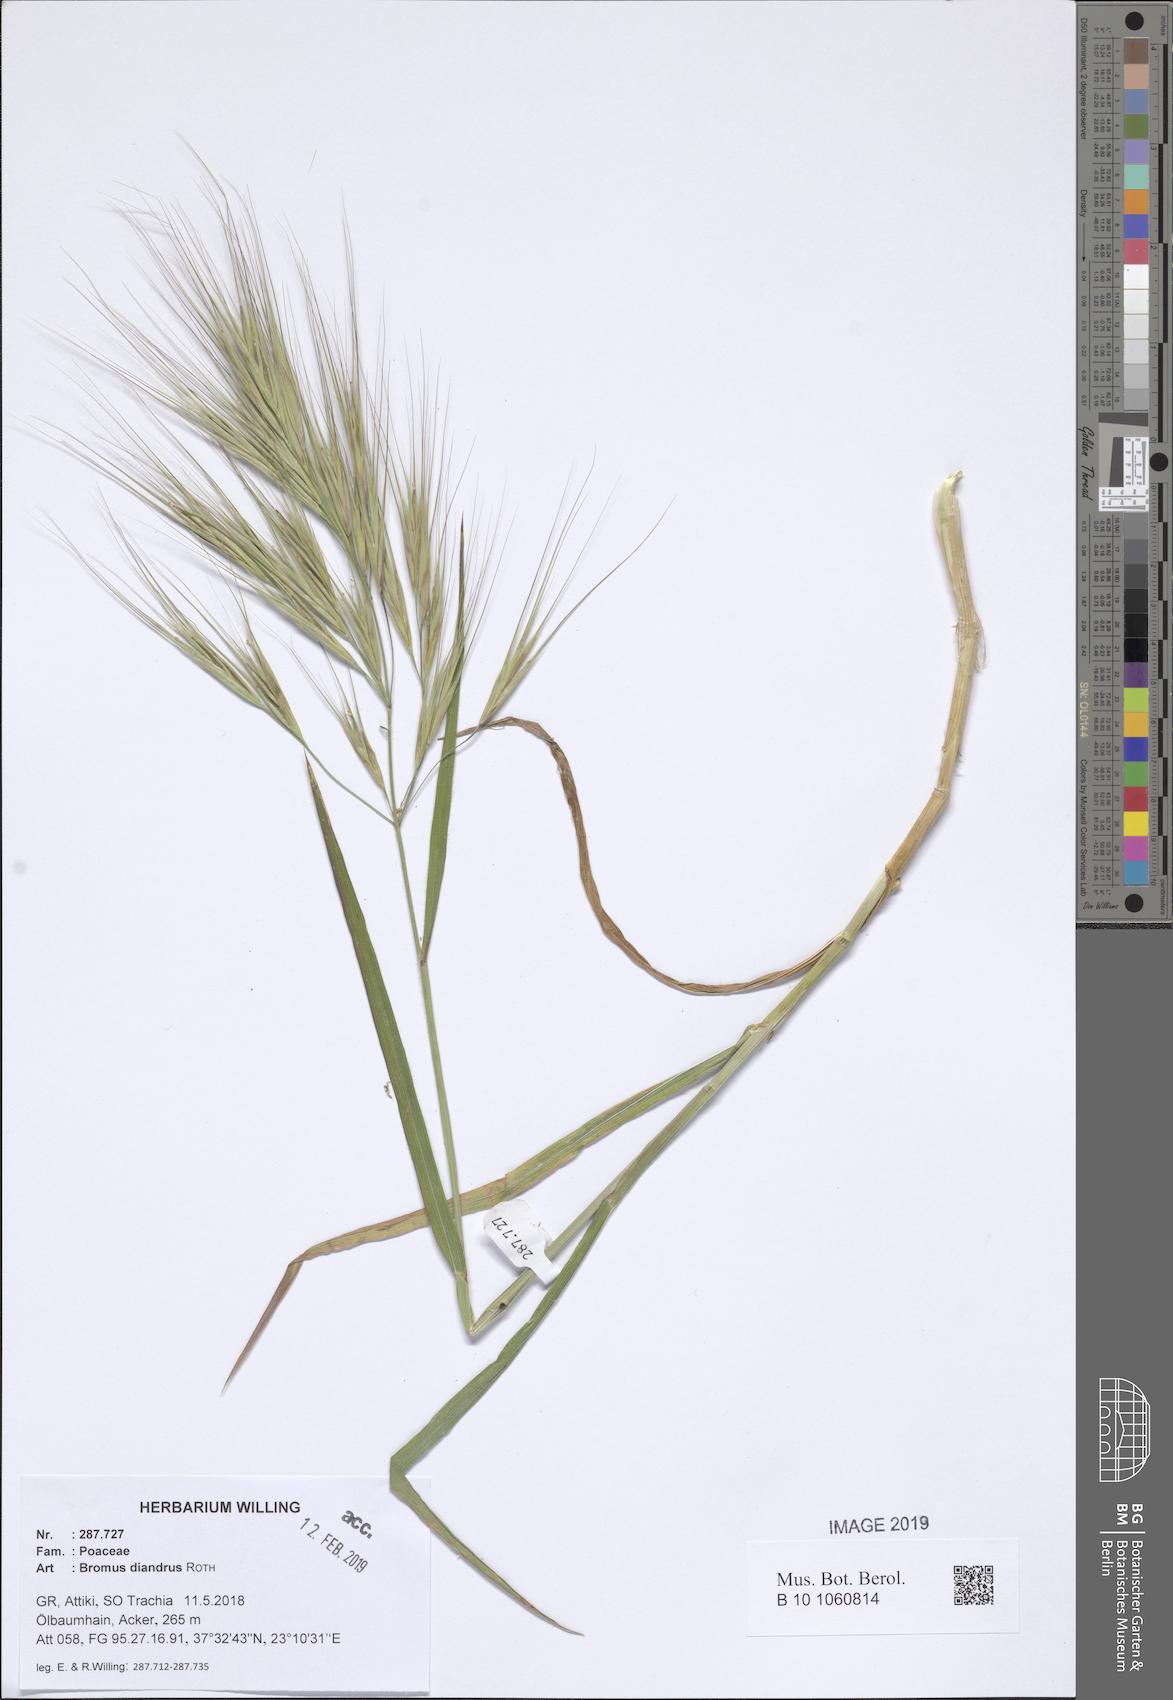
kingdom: Plantae
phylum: Tracheophyta
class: Liliopsida
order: Poales
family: Poaceae
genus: Bromus
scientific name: Bromus diandrus
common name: Ripgut brome
